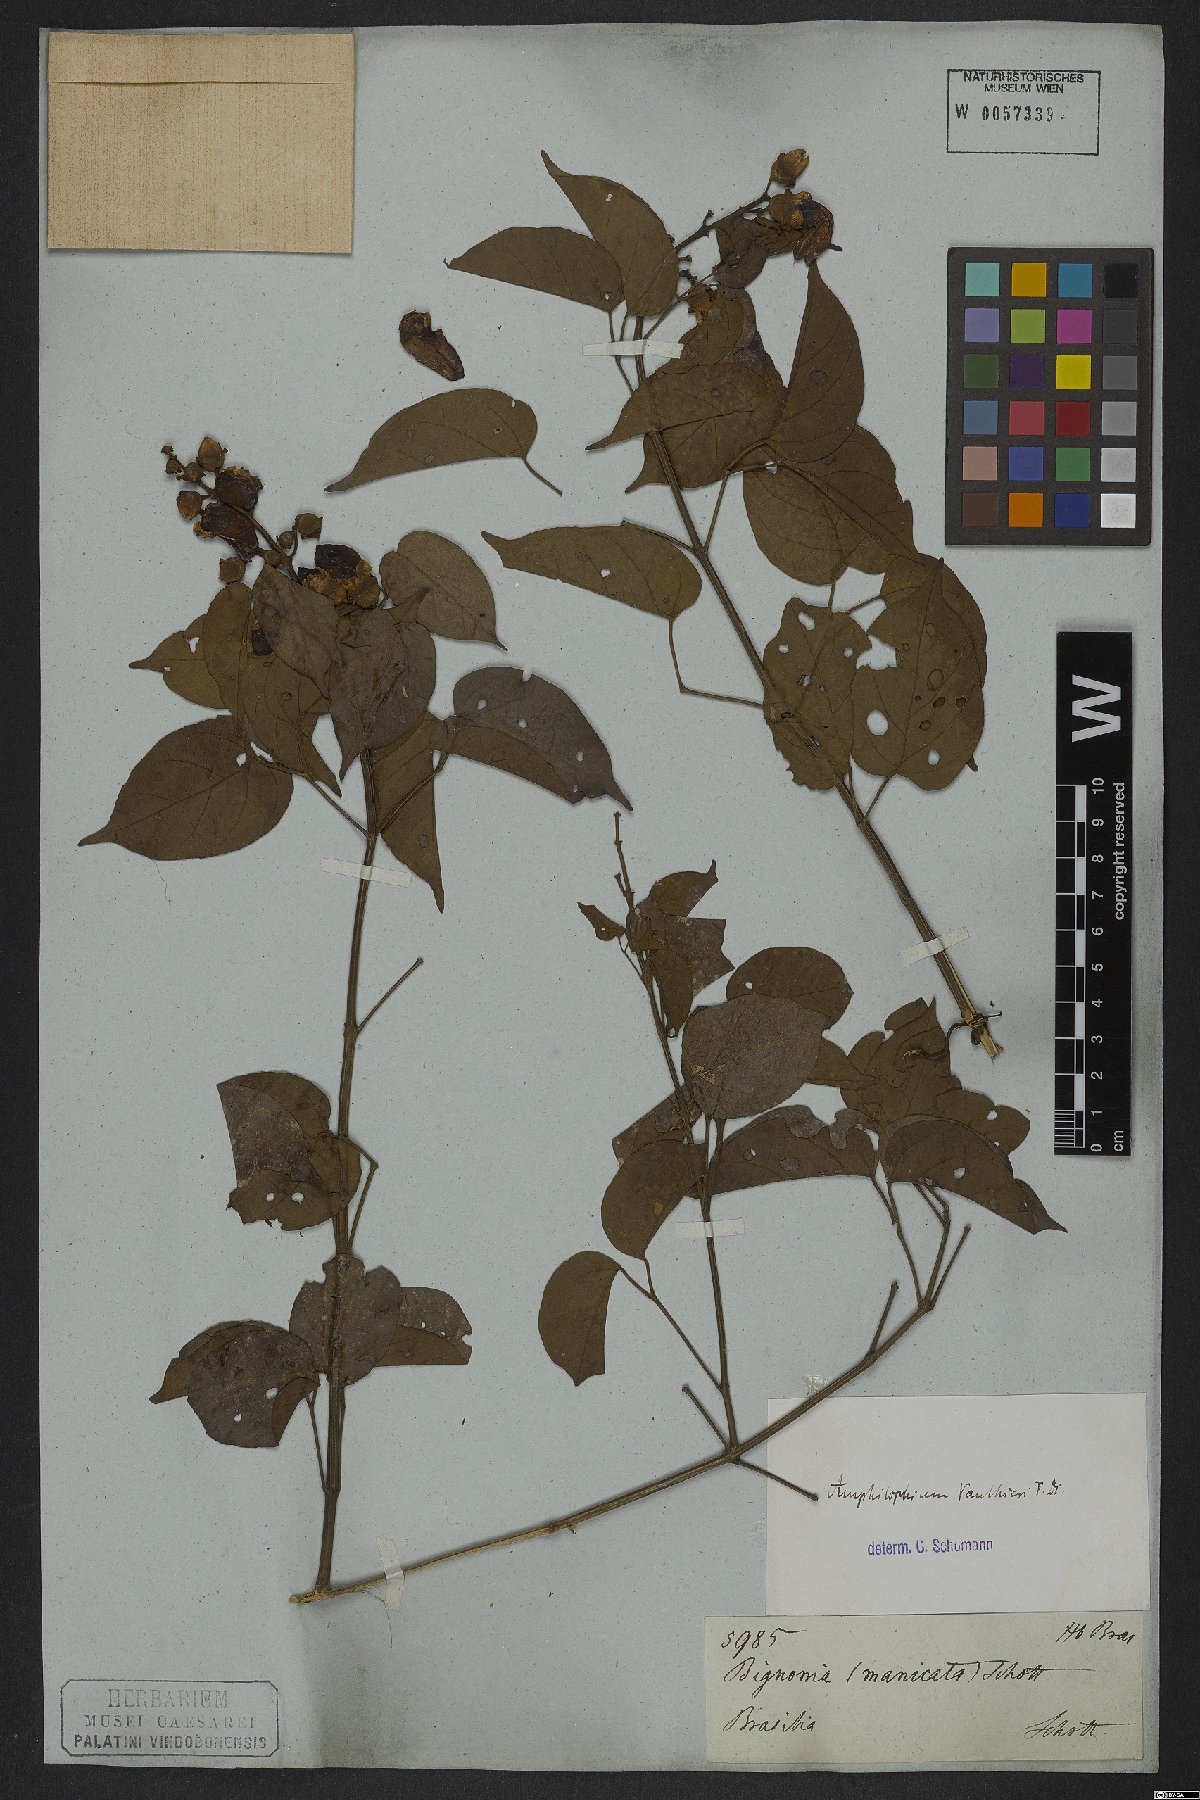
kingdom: Plantae
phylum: Tracheophyta
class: Magnoliopsida
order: Lamiales
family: Bignoniaceae
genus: Amphilophium
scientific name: Amphilophium paniculatum
